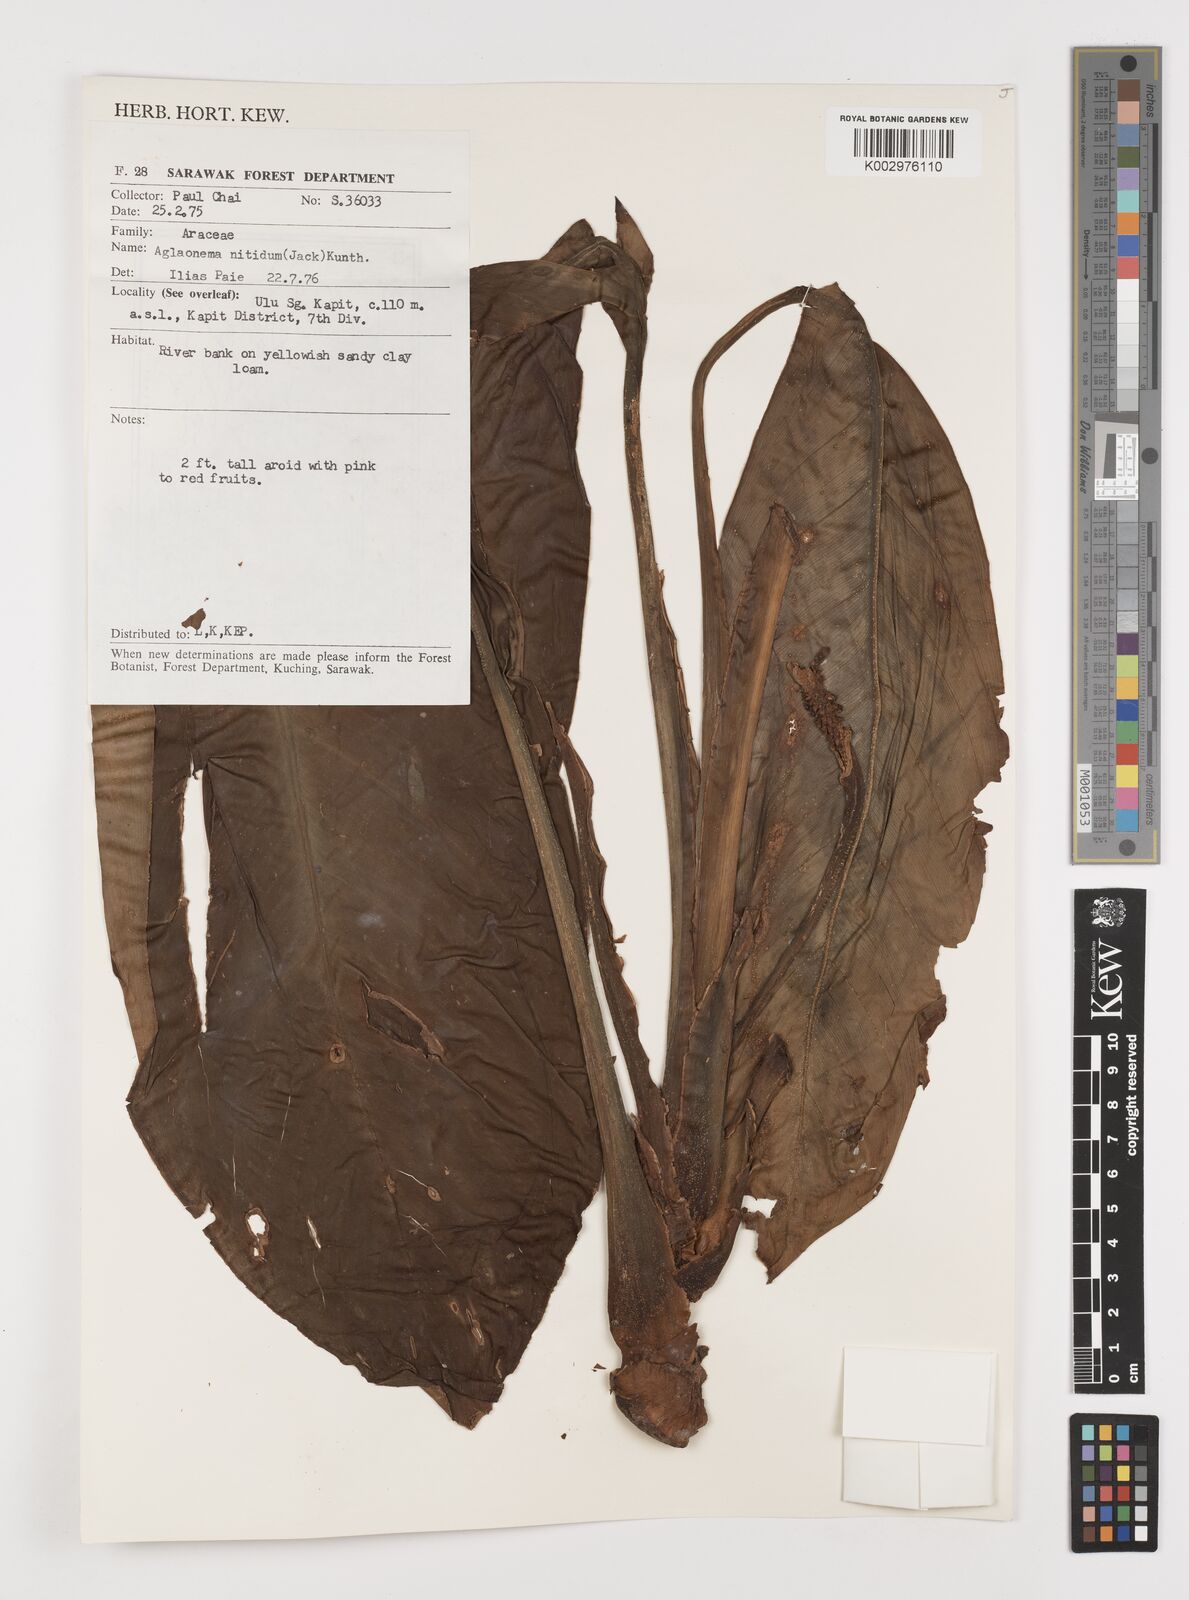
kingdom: Plantae
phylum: Tracheophyta
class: Liliopsida
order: Alismatales
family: Araceae
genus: Aglaonema
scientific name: Aglaonema nitidum
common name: Aglaonema aroid
